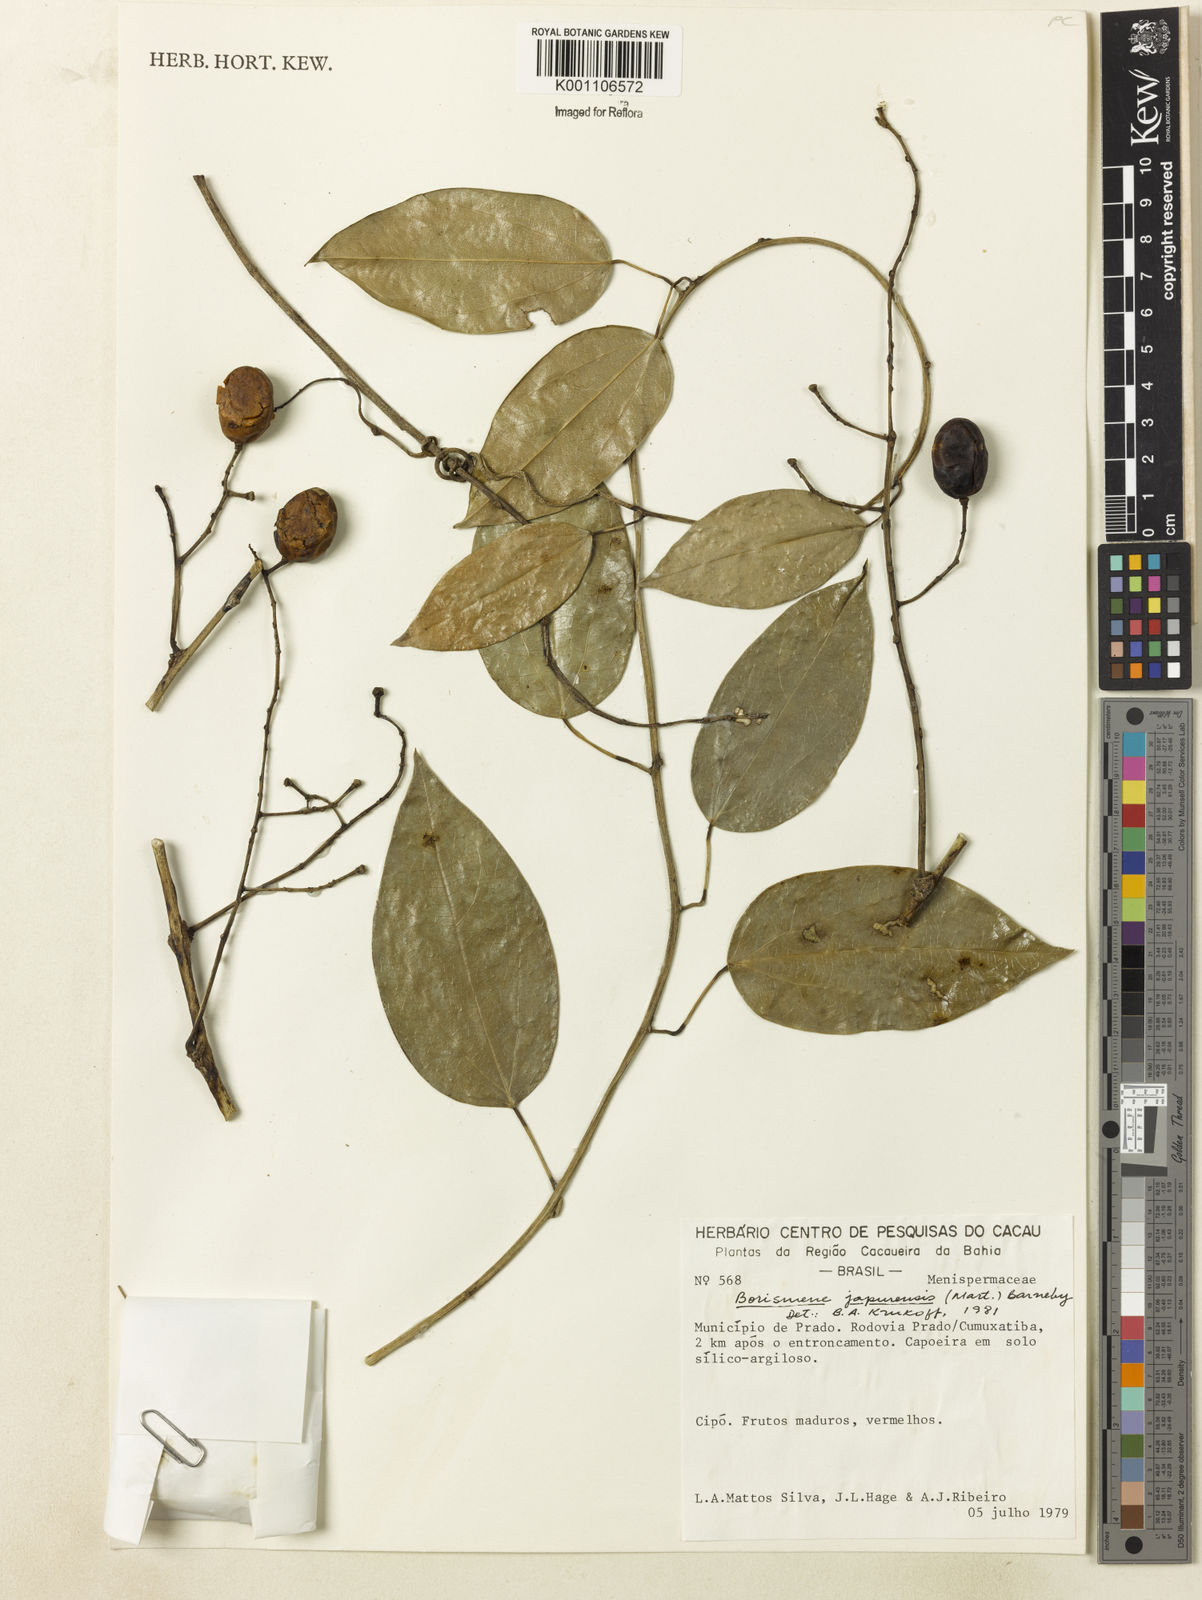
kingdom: Plantae
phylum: Tracheophyta
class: Magnoliopsida
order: Ranunculales
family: Menispermaceae
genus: Borismene
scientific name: Borismene japurensis
